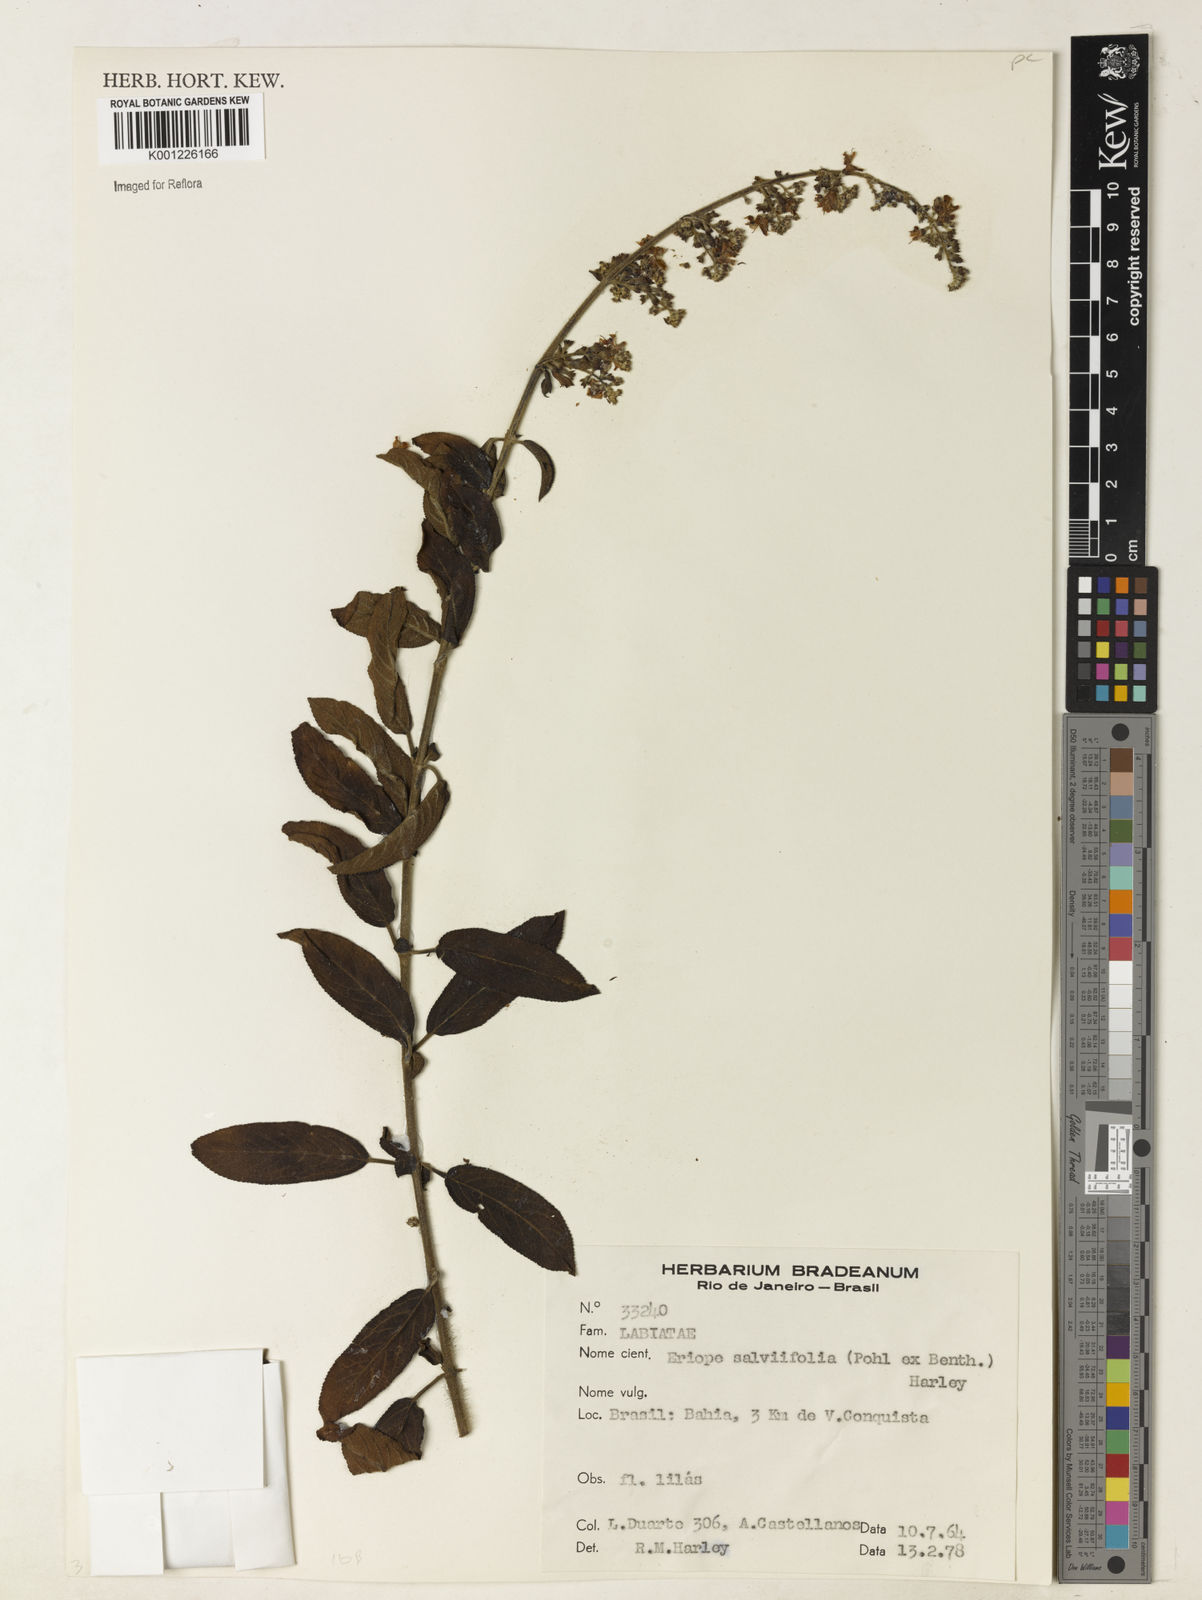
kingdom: Plantae
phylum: Tracheophyta
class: Magnoliopsida
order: Lamiales
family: Lamiaceae
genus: Eriope
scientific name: Eriope salviifolia
